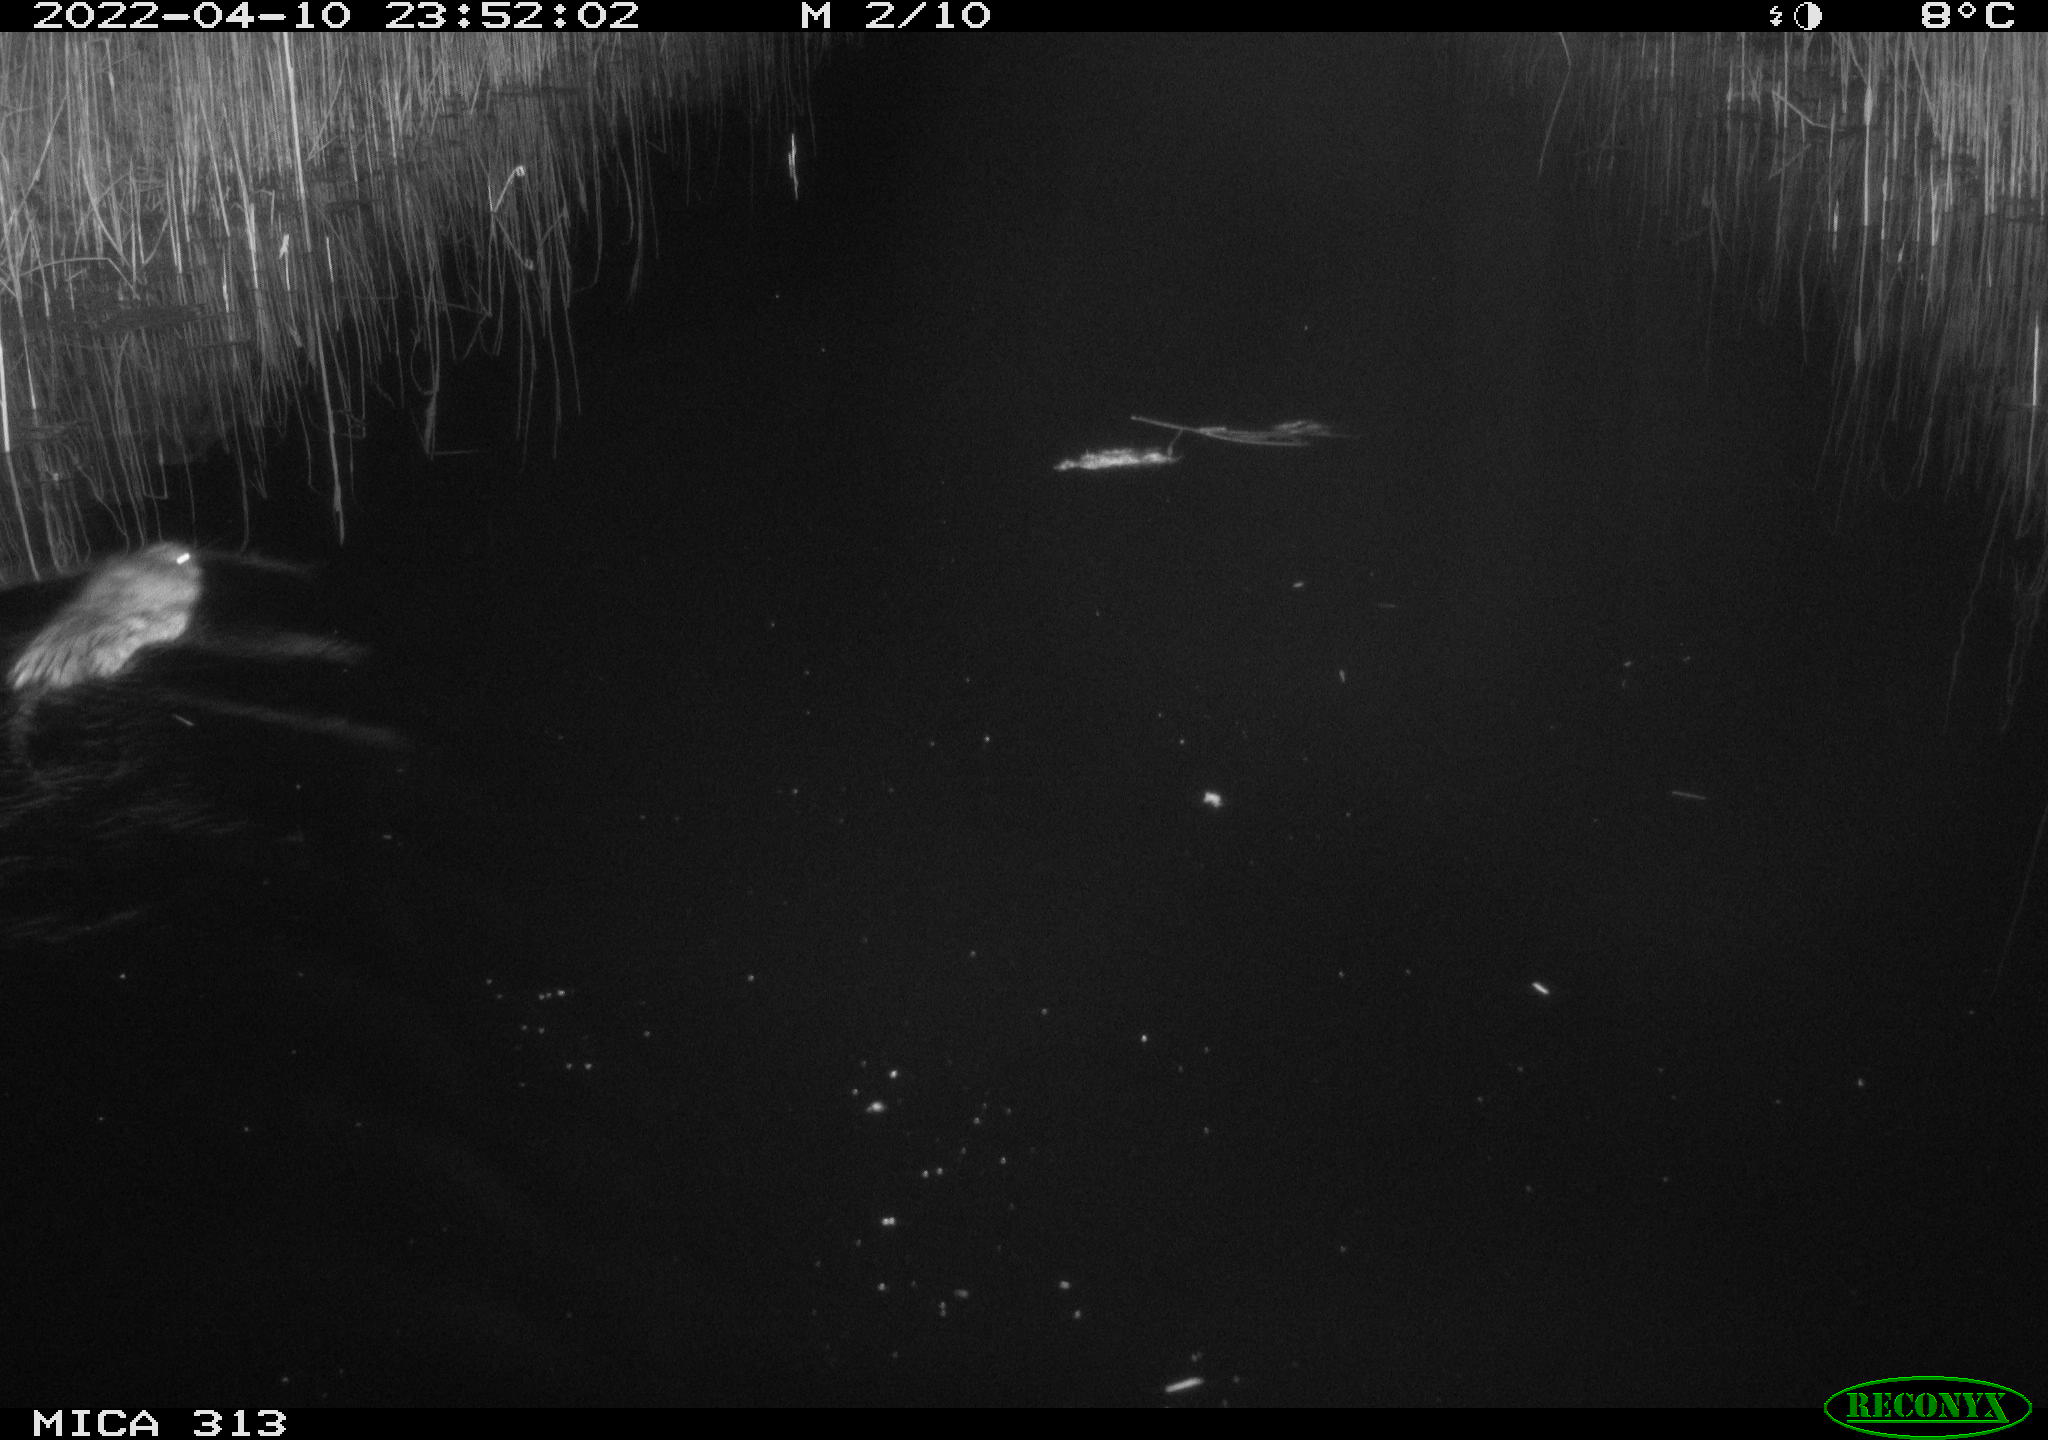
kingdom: Animalia
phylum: Chordata
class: Mammalia
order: Rodentia
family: Cricetidae
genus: Ondatra
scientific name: Ondatra zibethicus
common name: Muskrat
